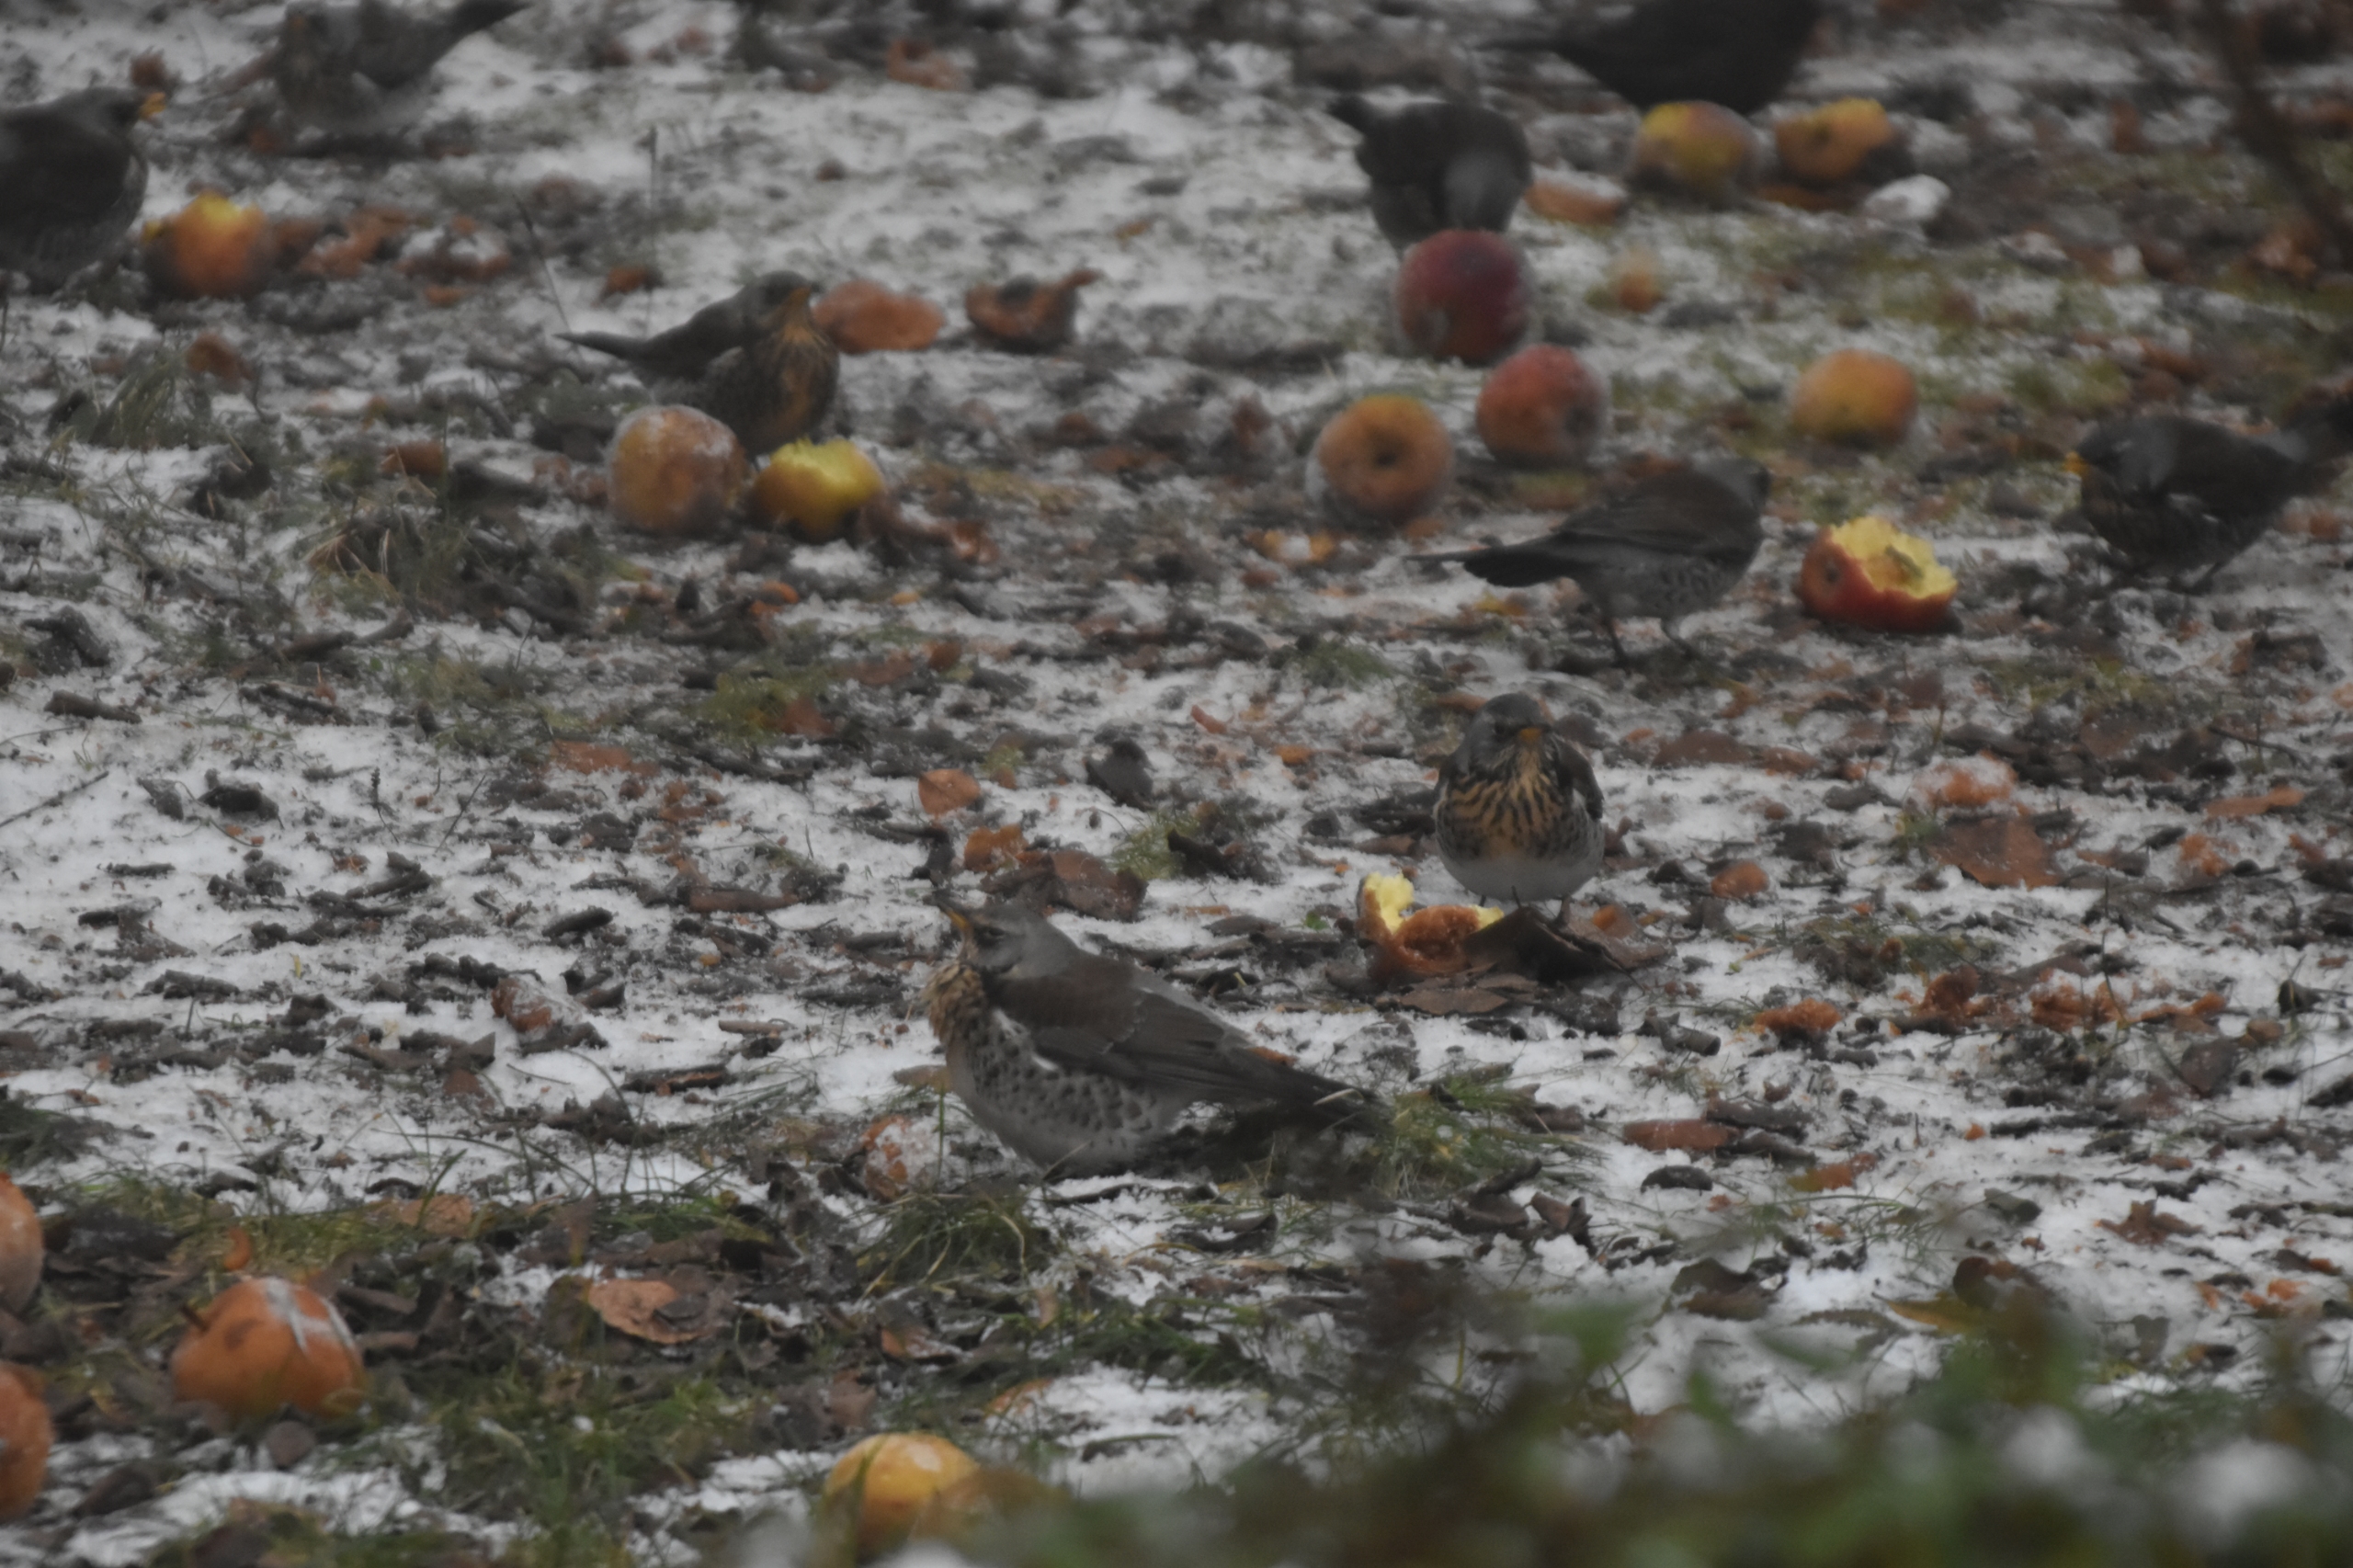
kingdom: Animalia
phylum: Chordata
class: Aves
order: Passeriformes
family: Turdidae
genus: Turdus
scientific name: Turdus pilaris
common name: Sjagger
